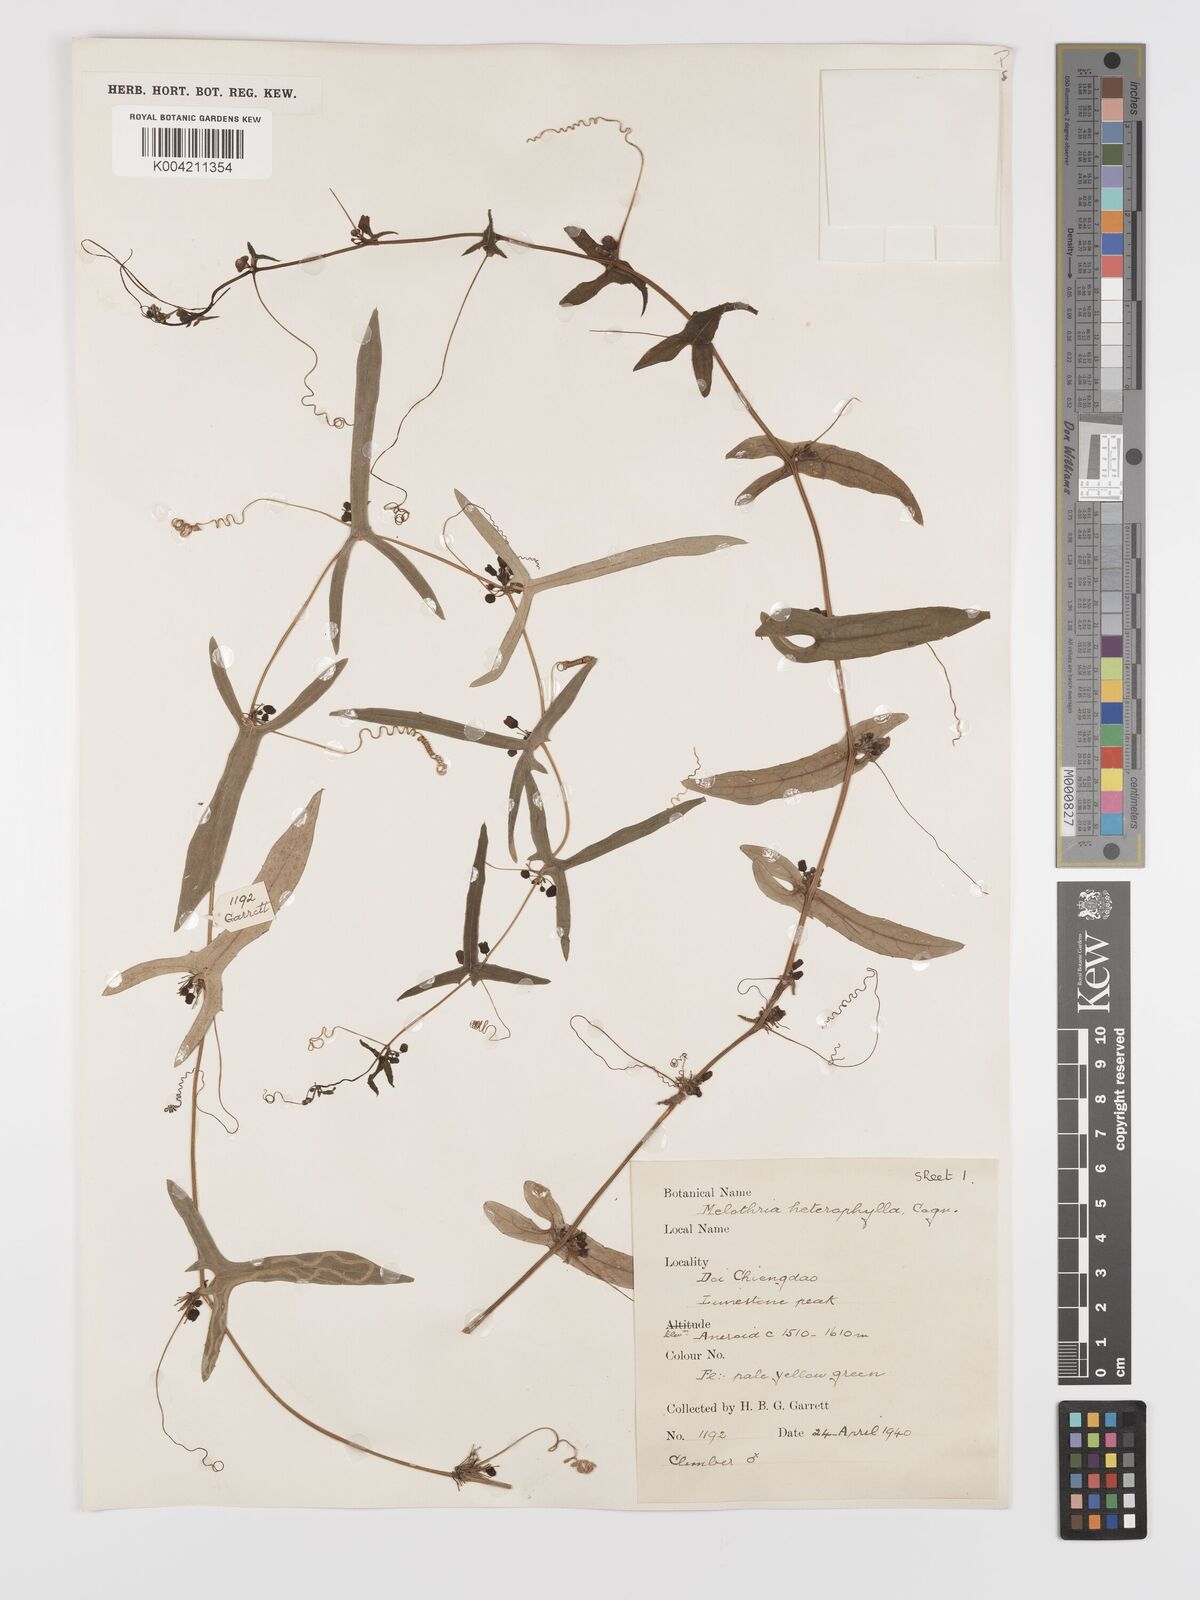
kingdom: Plantae
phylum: Tracheophyta
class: Magnoliopsida
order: Cucurbitales
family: Cucurbitaceae
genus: Solena
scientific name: Solena amplexicaulis
